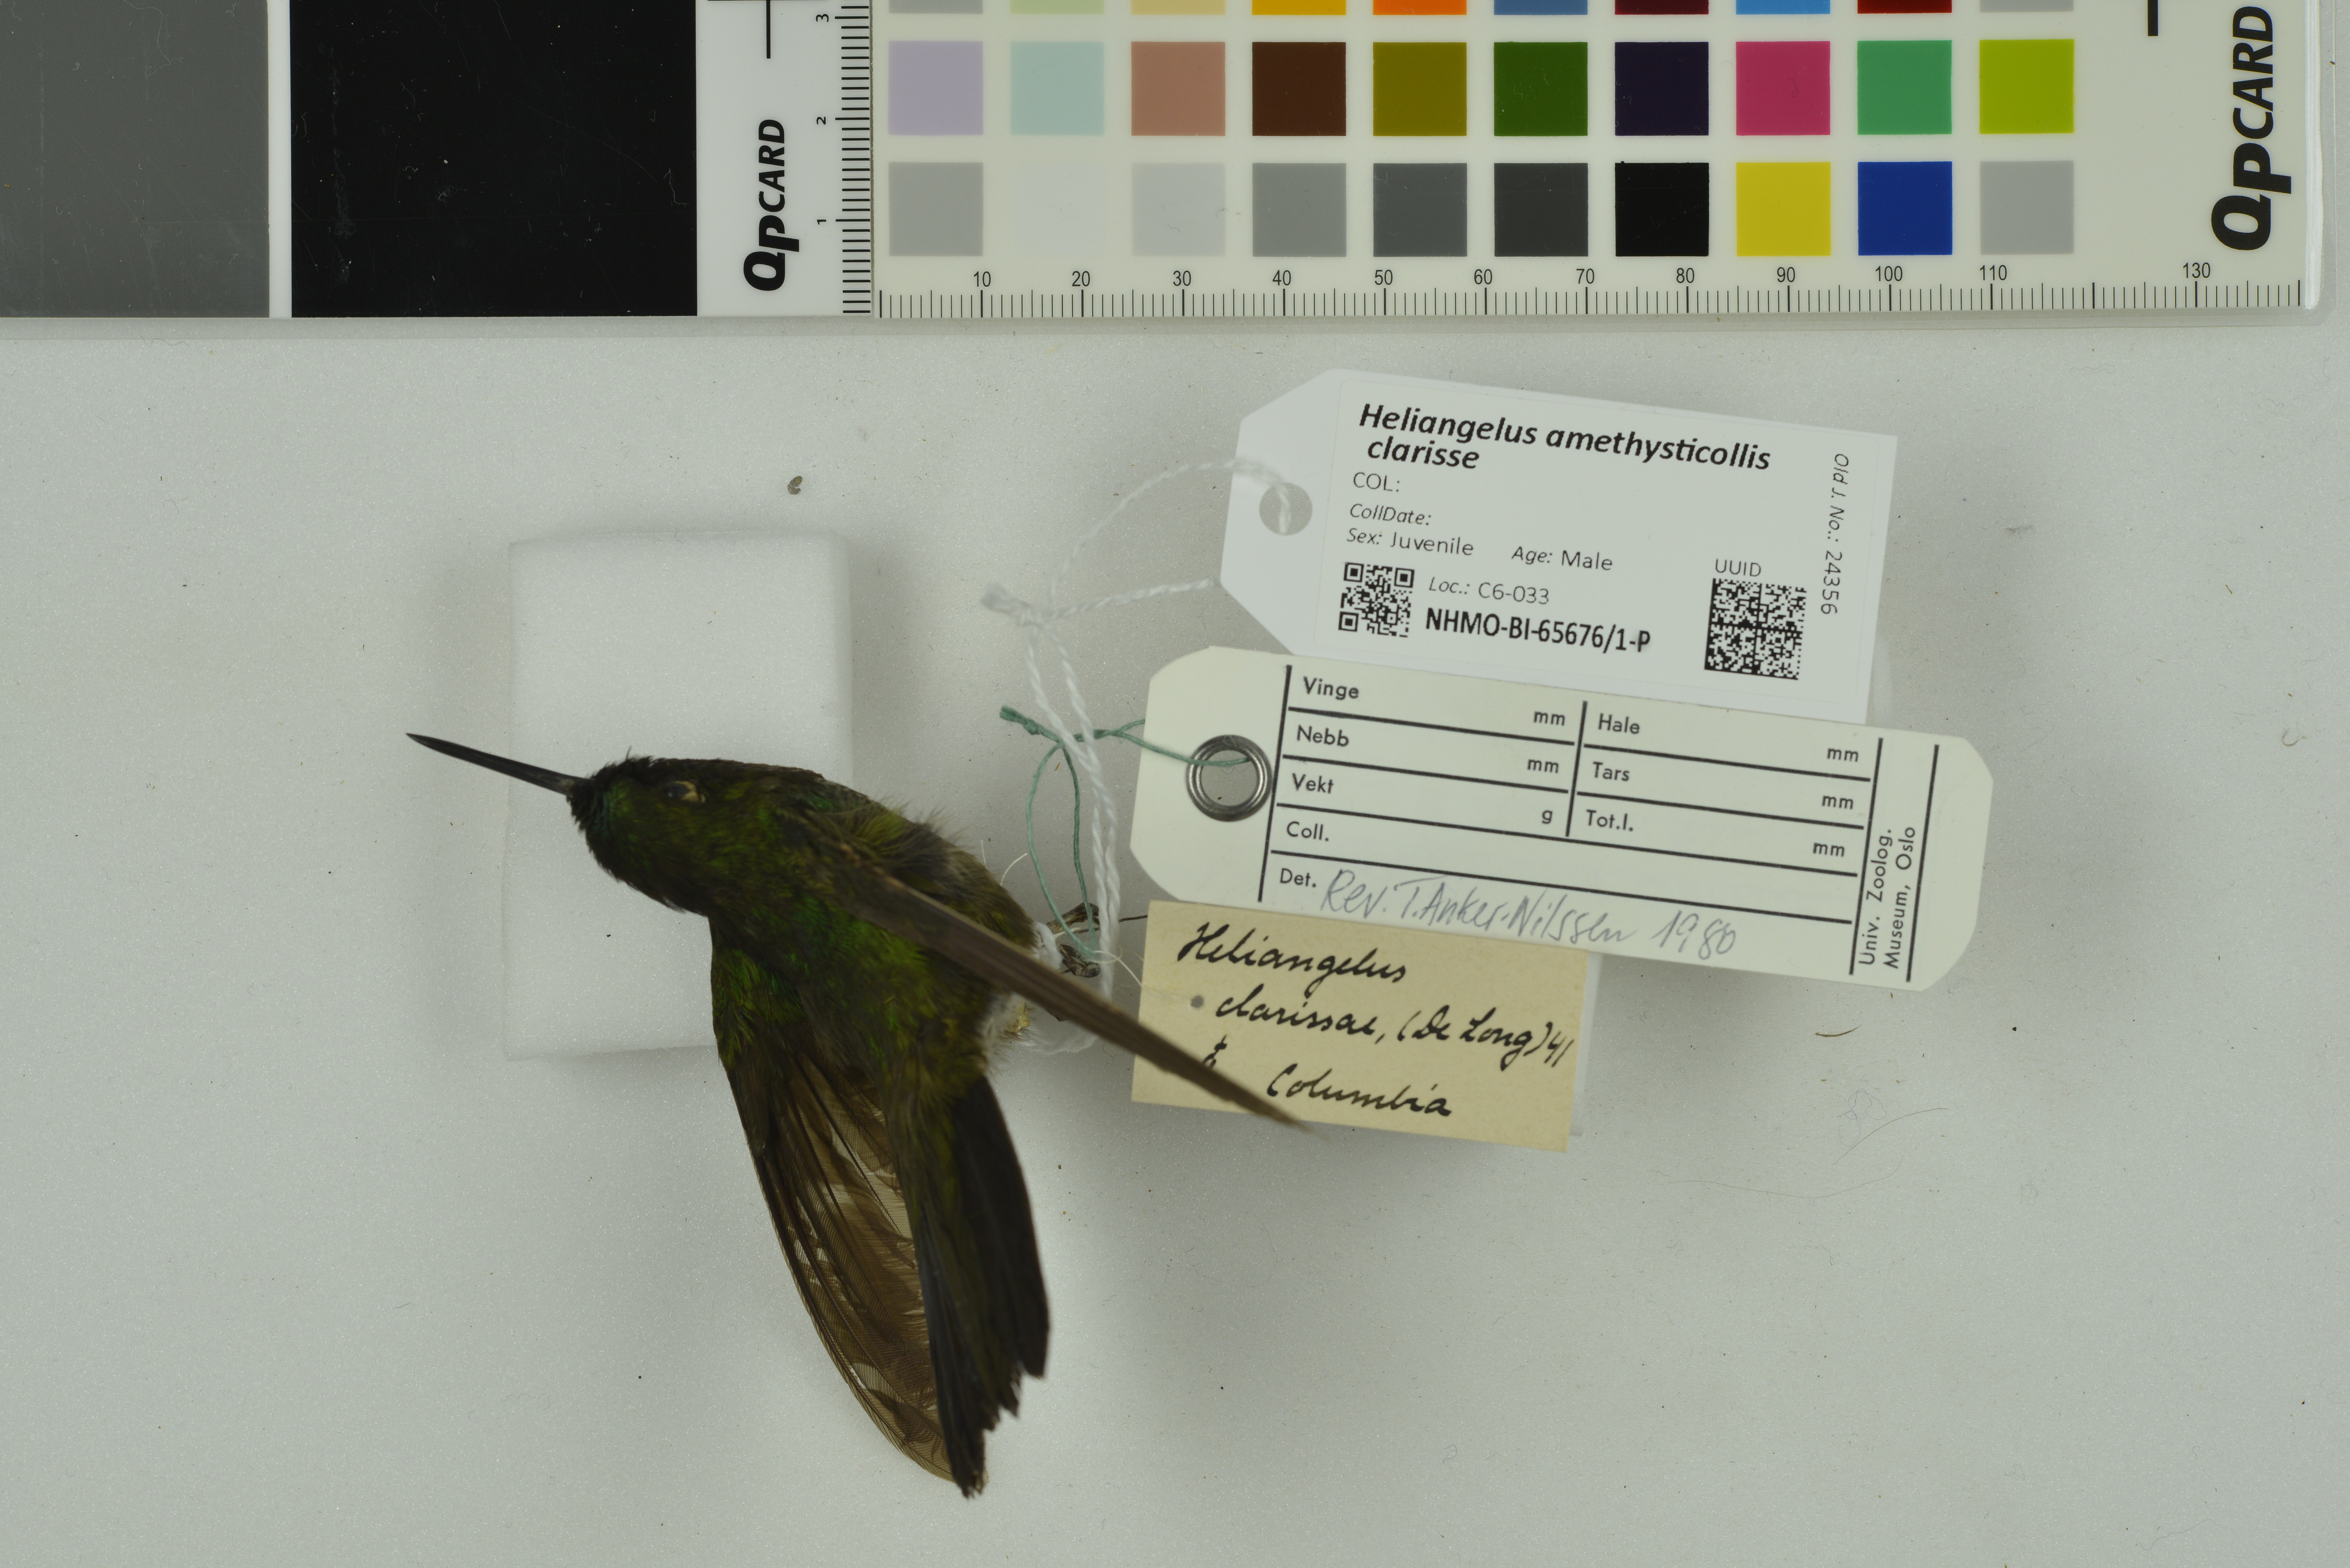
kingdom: Animalia
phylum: Chordata
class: Aves
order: Apodiformes
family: Trochilidae
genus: Heliangelus
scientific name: Heliangelus clarisse
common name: Longuemare's sunangel
